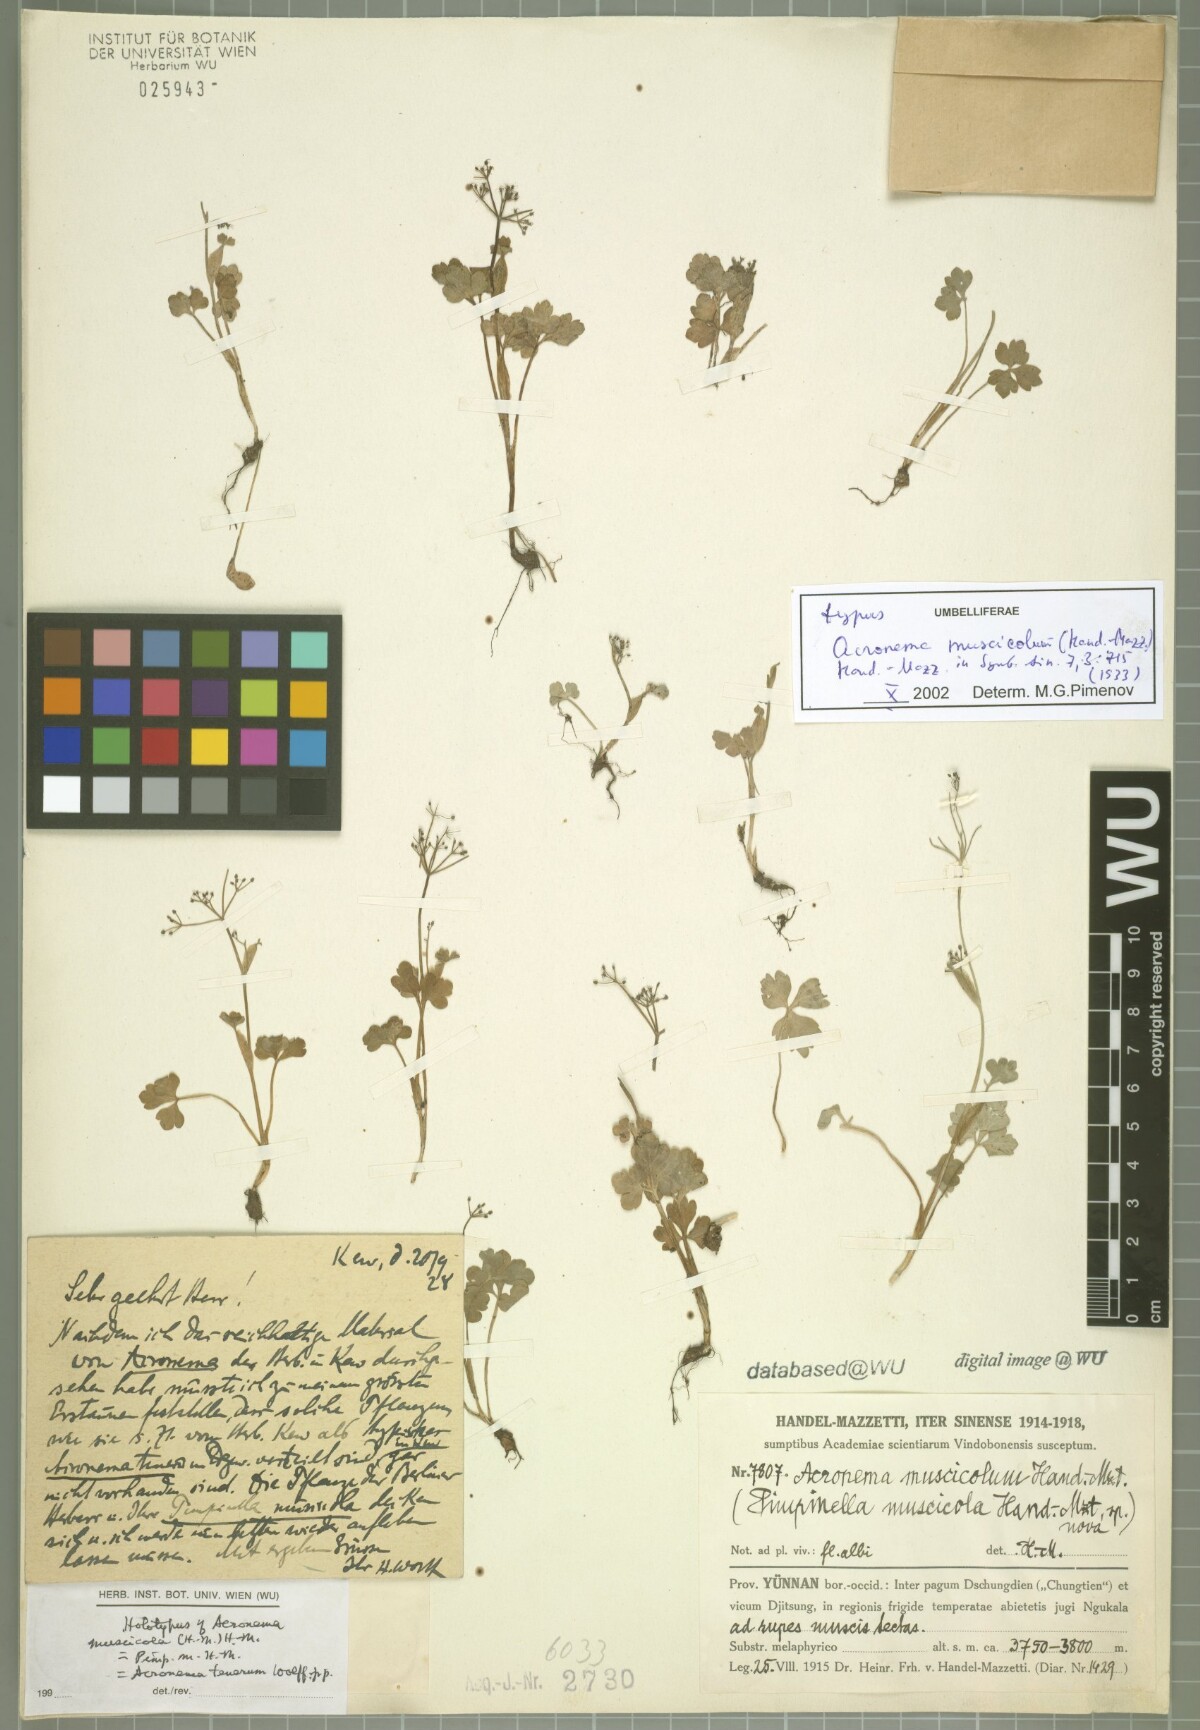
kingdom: Plantae
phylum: Tracheophyta
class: Magnoliopsida
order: Apiales
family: Apiaceae
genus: Acronema
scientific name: Acronema muscicola
